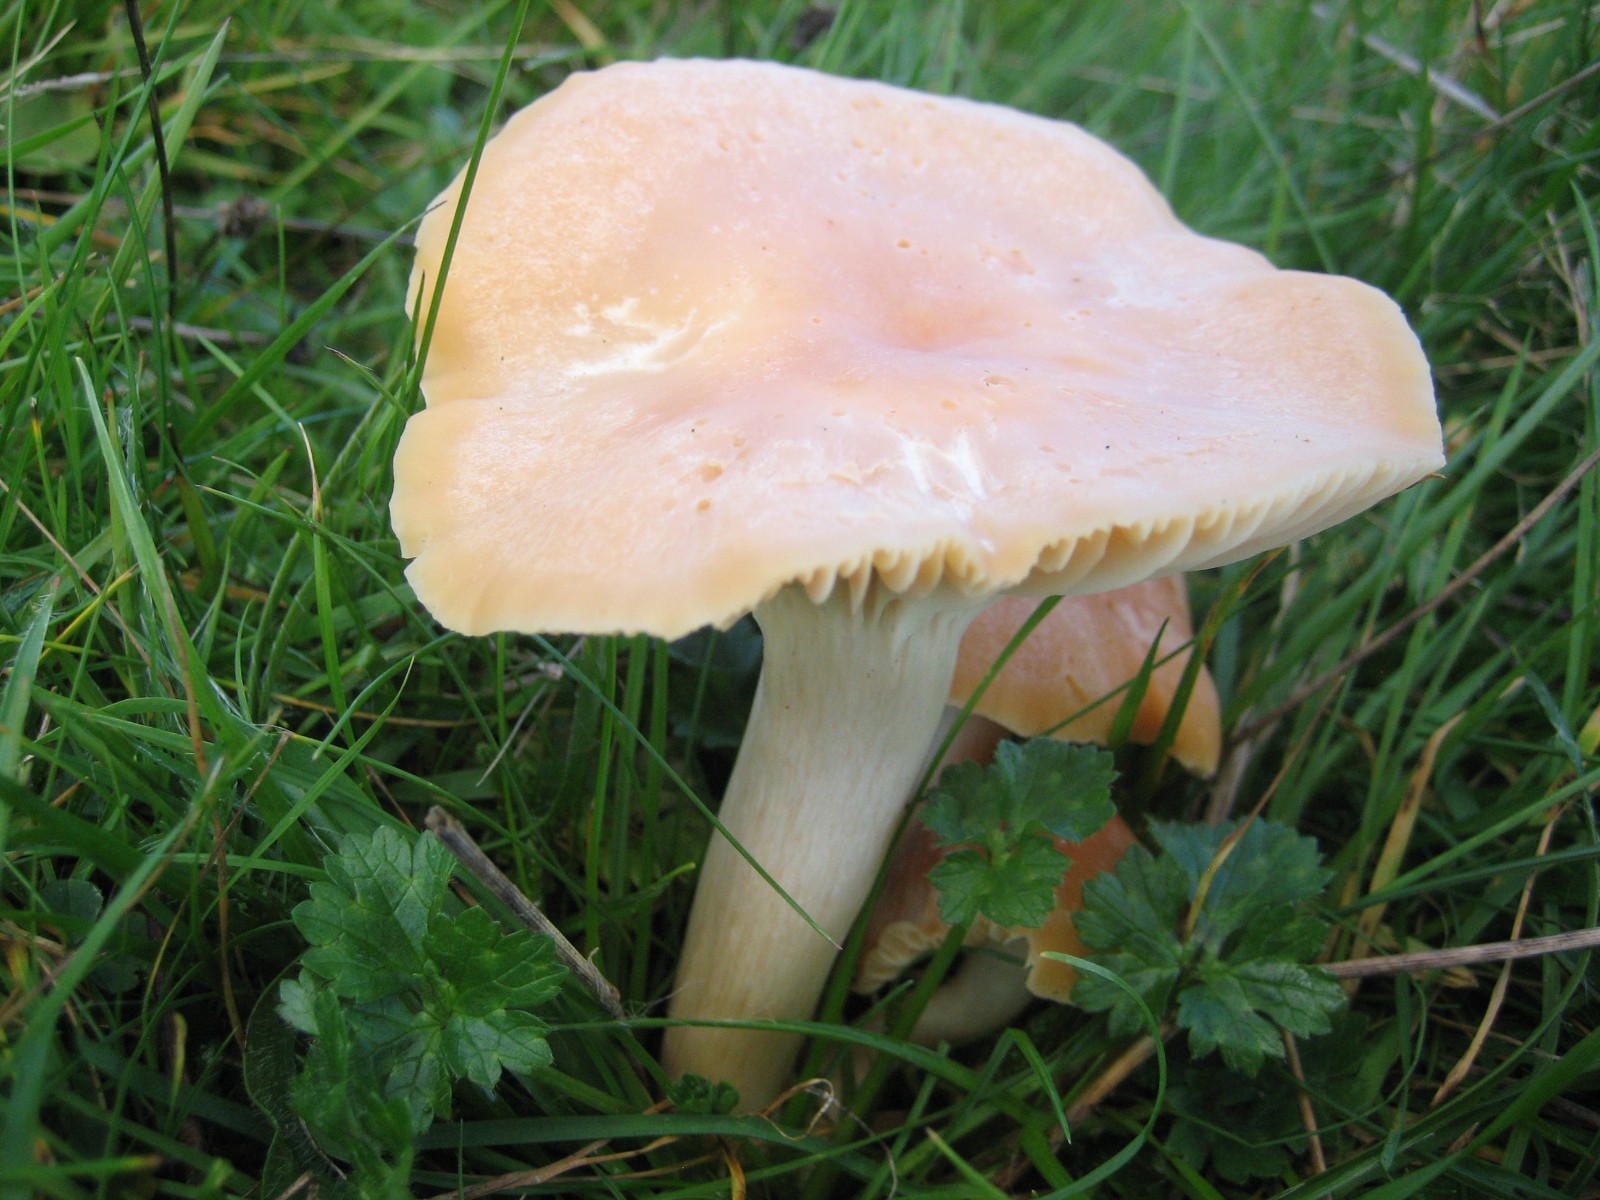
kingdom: Fungi
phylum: Basidiomycota
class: Agaricomycetes
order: Agaricales
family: Hygrophoraceae
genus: Cuphophyllus
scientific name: Cuphophyllus pratensis
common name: eng-vokshat
